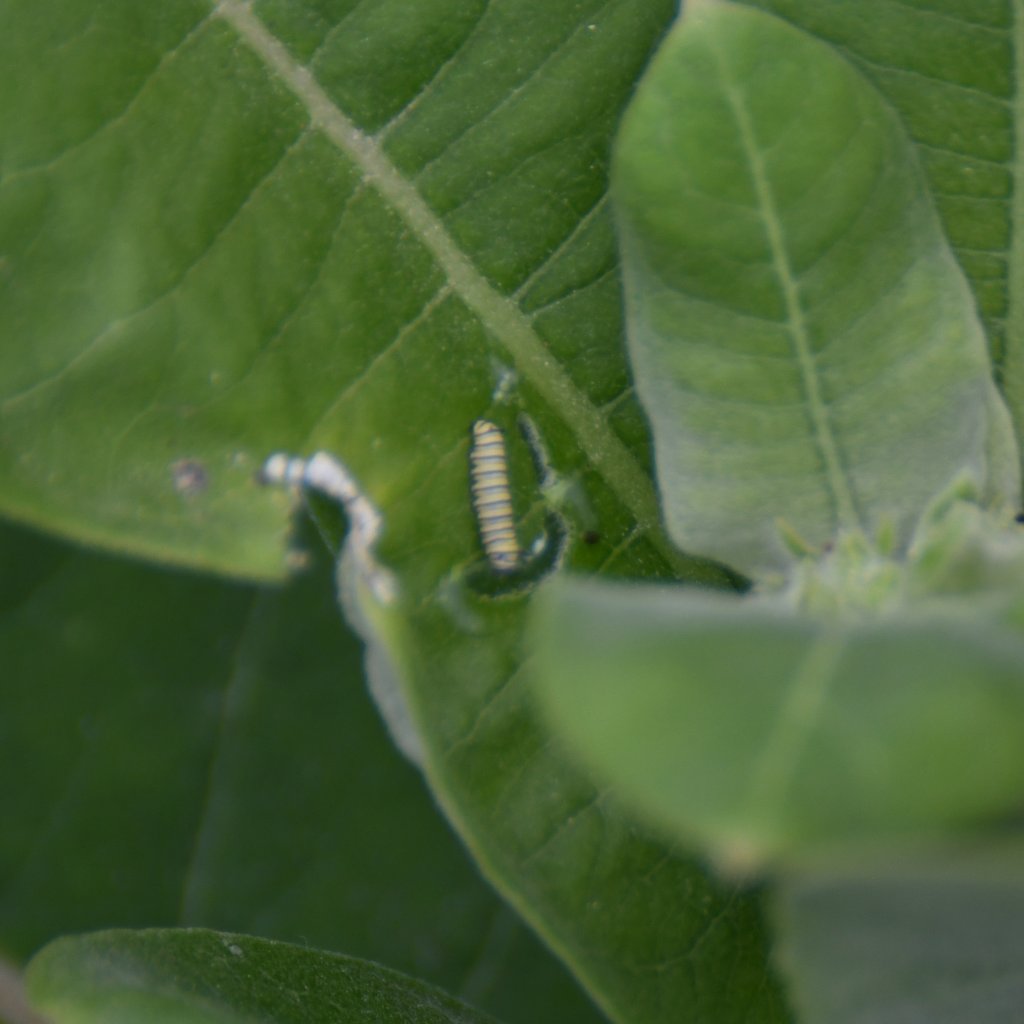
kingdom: Animalia
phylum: Arthropoda
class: Insecta
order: Lepidoptera
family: Nymphalidae
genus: Danaus
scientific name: Danaus plexippus
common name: Monarch
